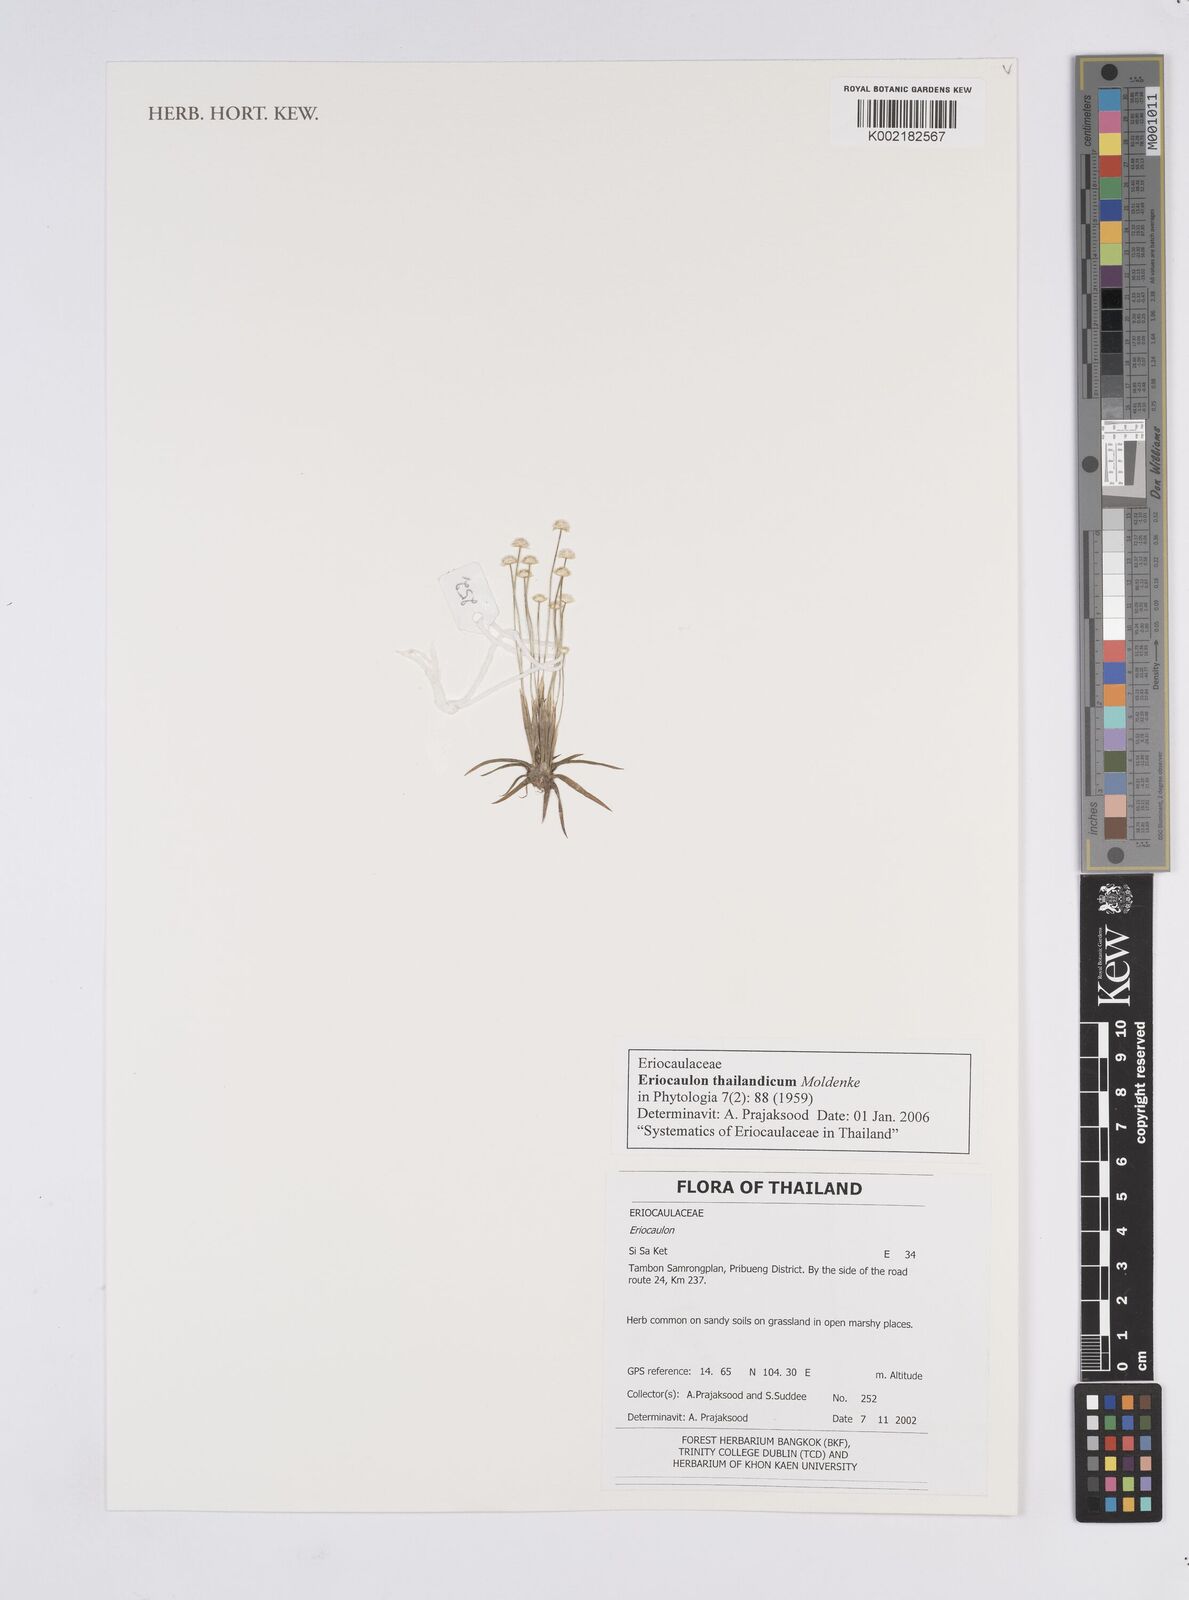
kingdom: Plantae
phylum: Tracheophyta
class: Liliopsida
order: Poales
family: Eriocaulaceae
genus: Eriocaulon
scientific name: Eriocaulon thailandicum
